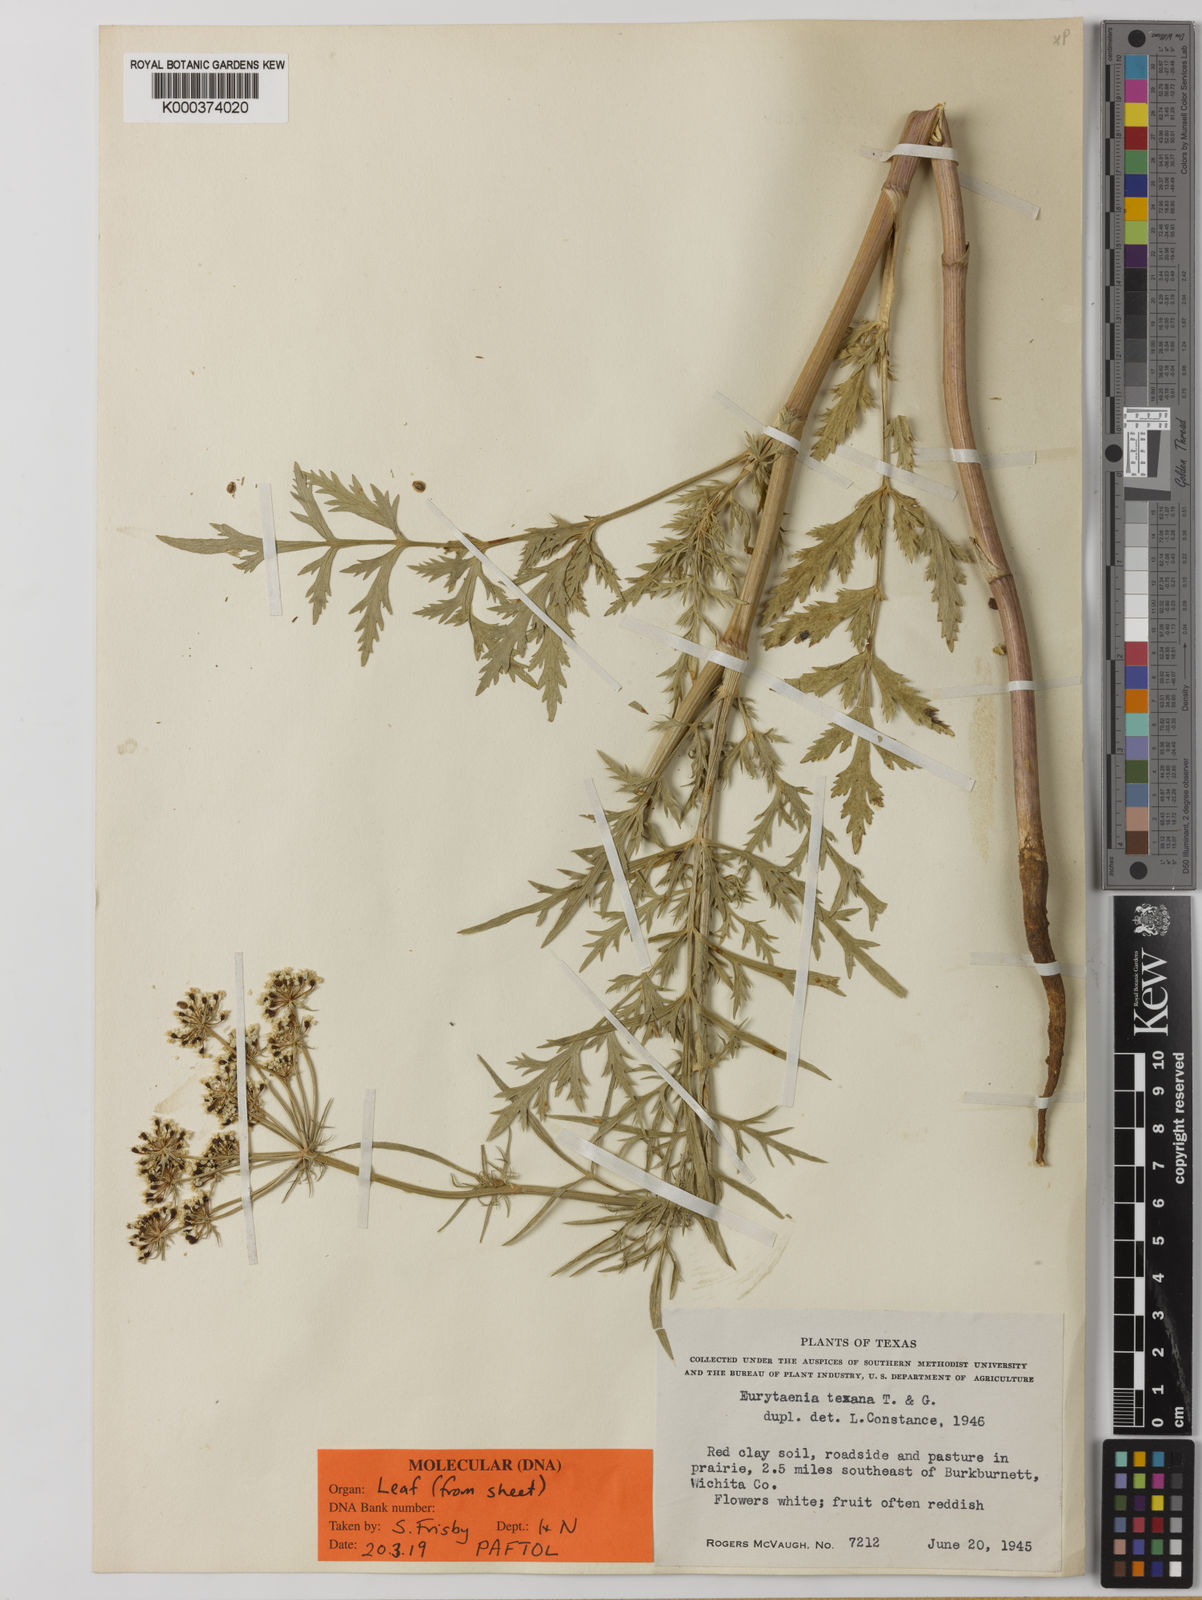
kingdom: Plantae
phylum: Tracheophyta
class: Magnoliopsida
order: Apiales
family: Apiaceae
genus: Eurytaenia
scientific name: Eurytaenia texana
